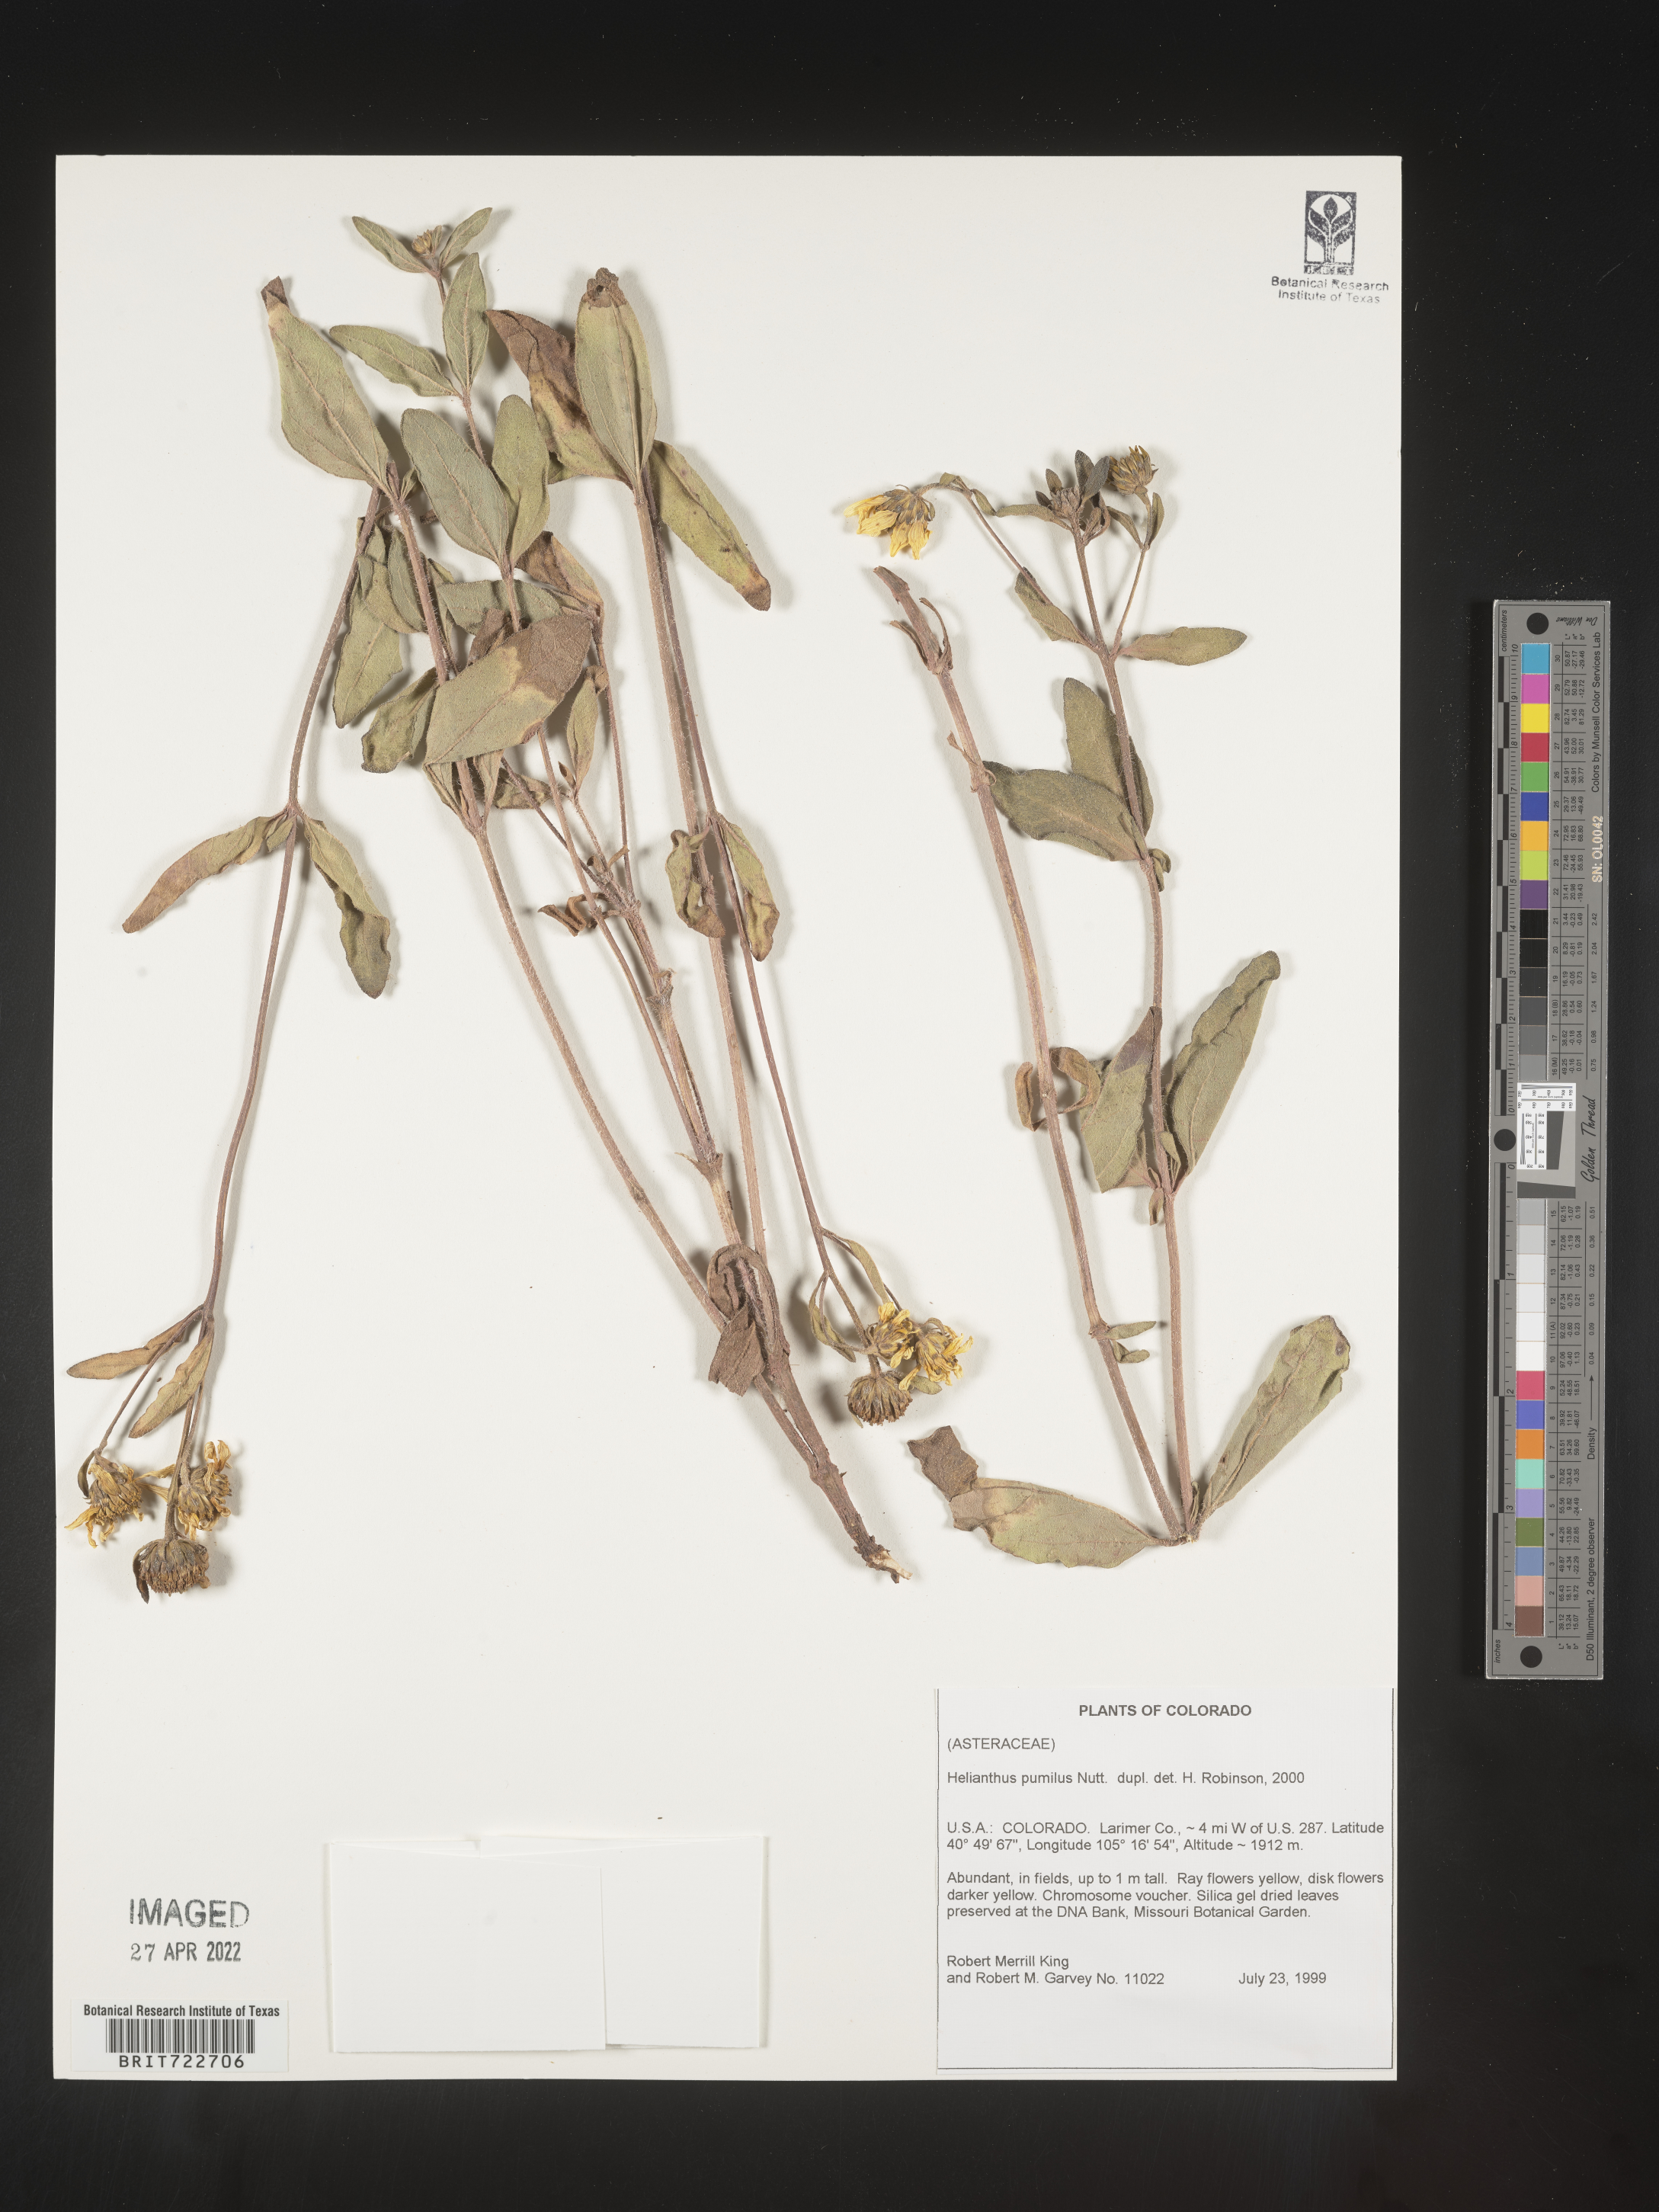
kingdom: Plantae
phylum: Tracheophyta
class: Magnoliopsida
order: Asterales
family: Asteraceae
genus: Helianthus
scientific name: Helianthus pumilus
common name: Dwarf sunflower
